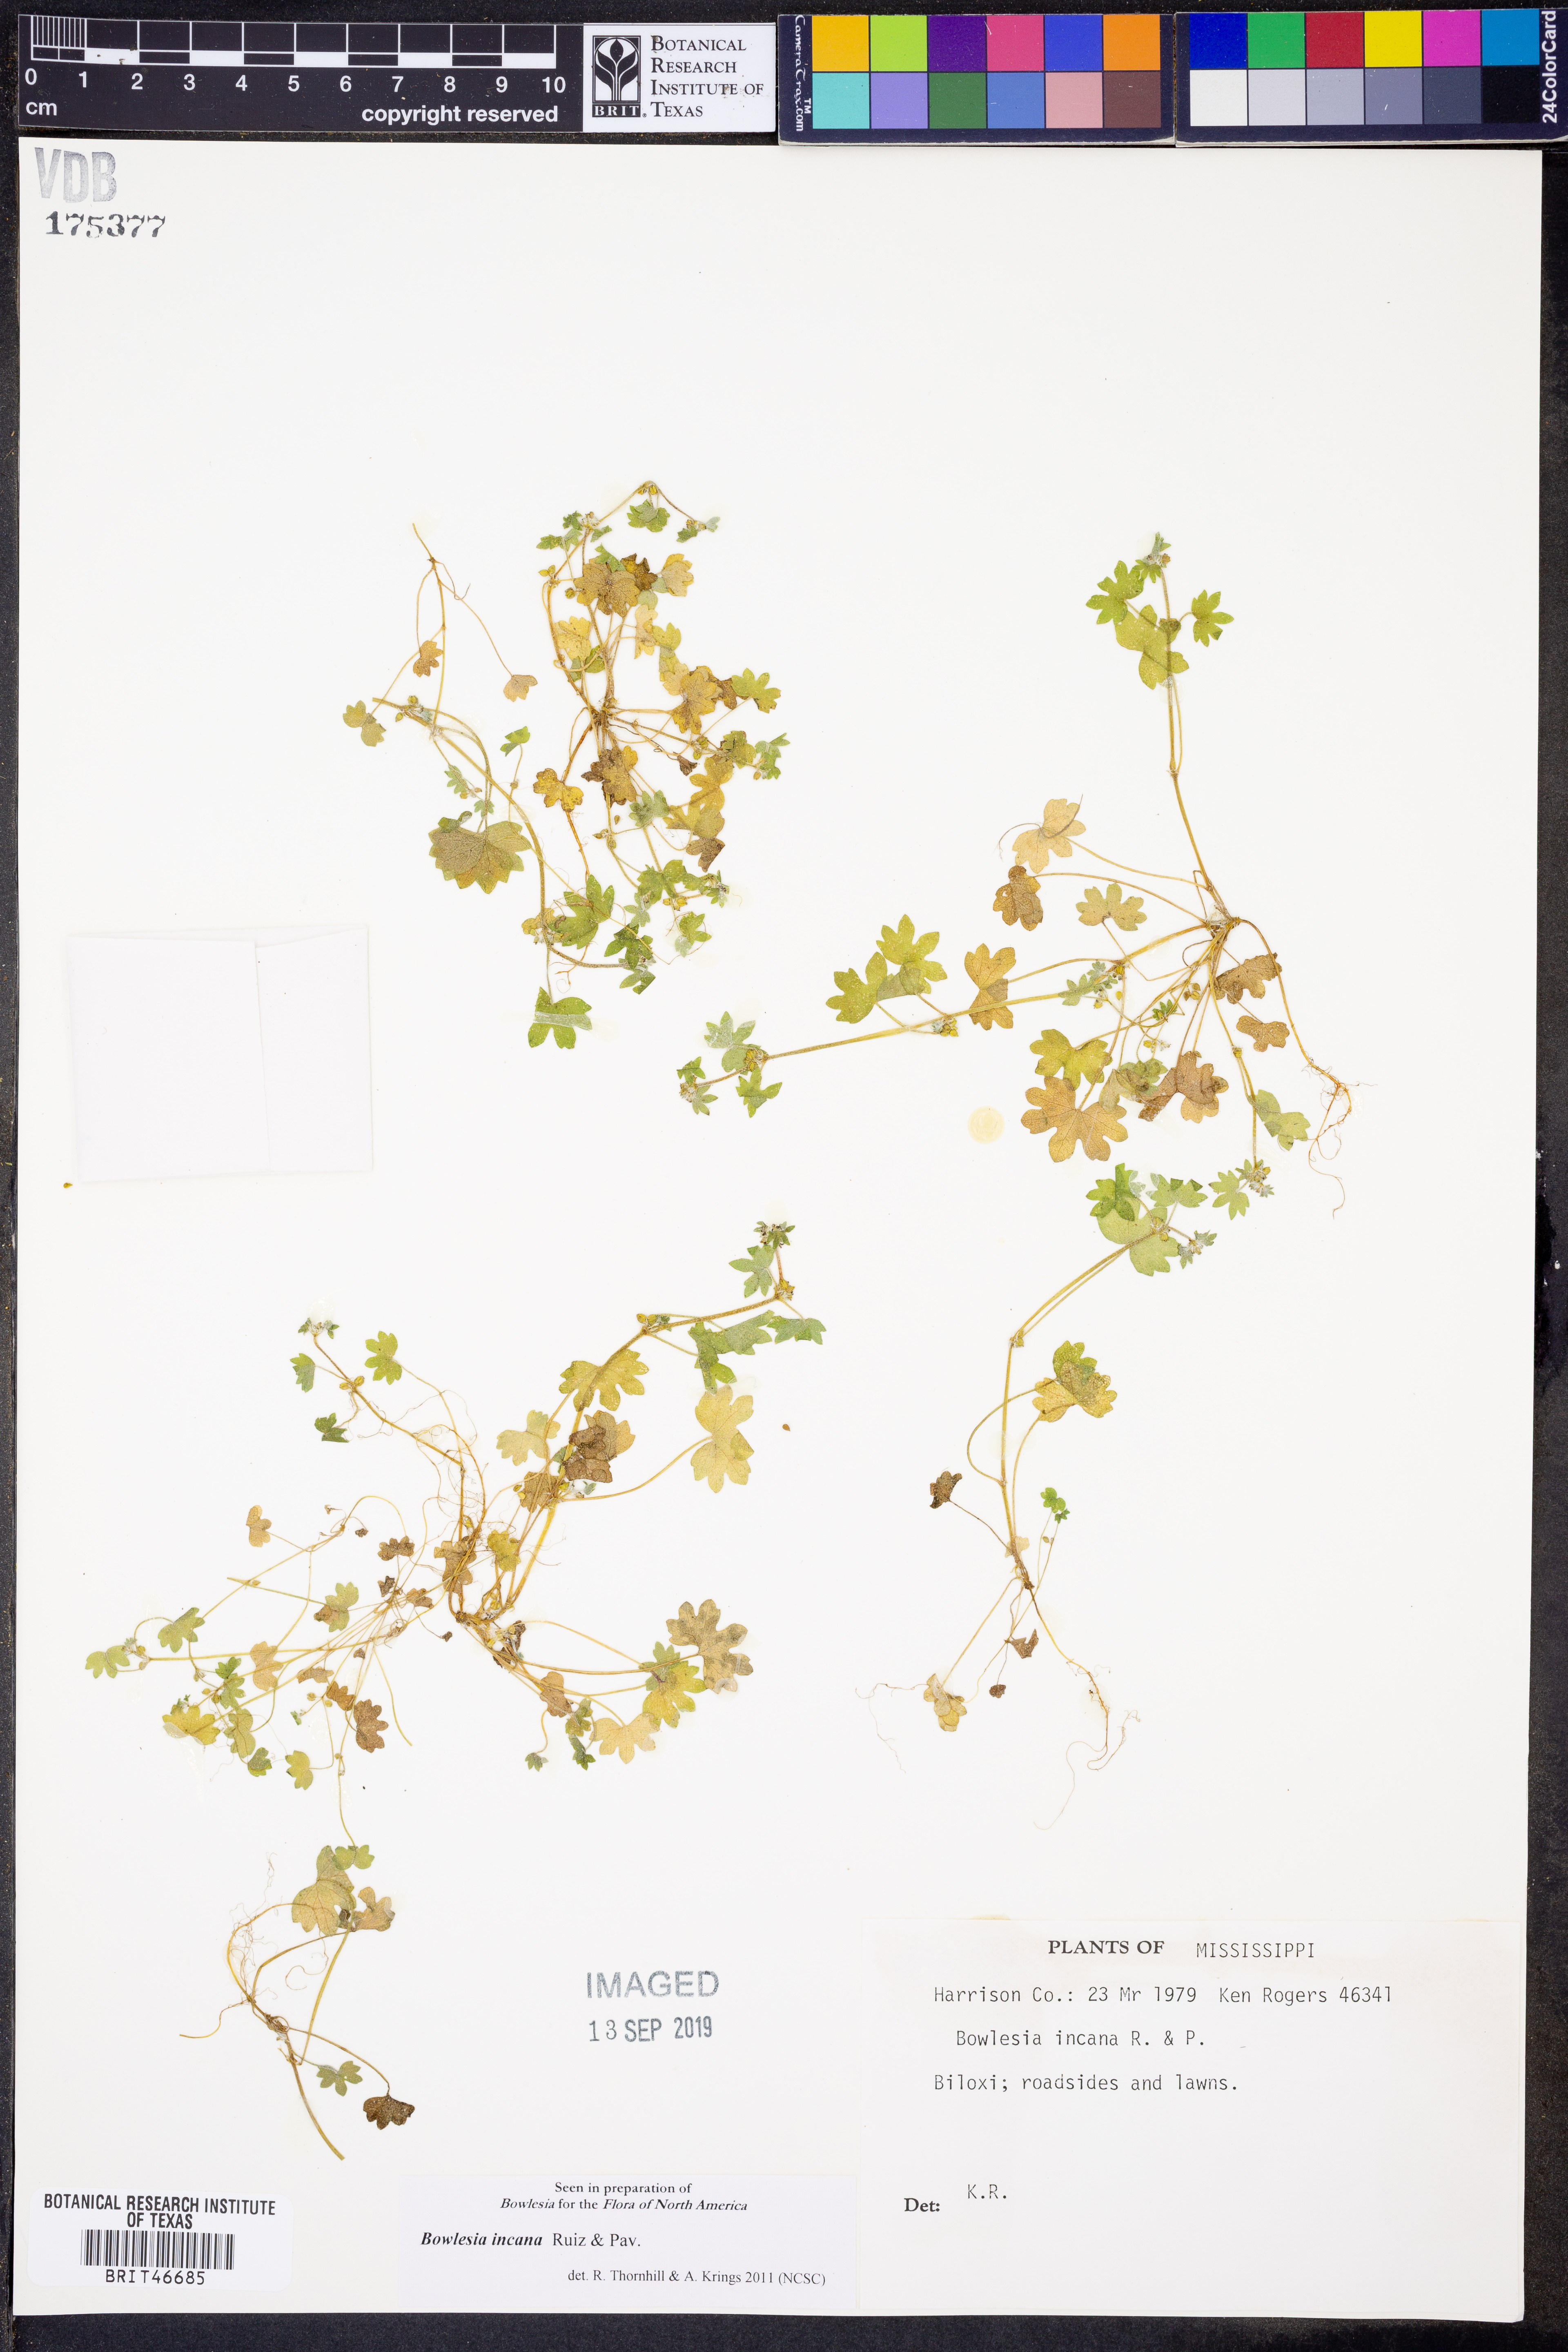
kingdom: Plantae
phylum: Tracheophyta
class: Magnoliopsida
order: Apiales
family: Apiaceae
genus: Bowlesia
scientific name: Bowlesia incana
